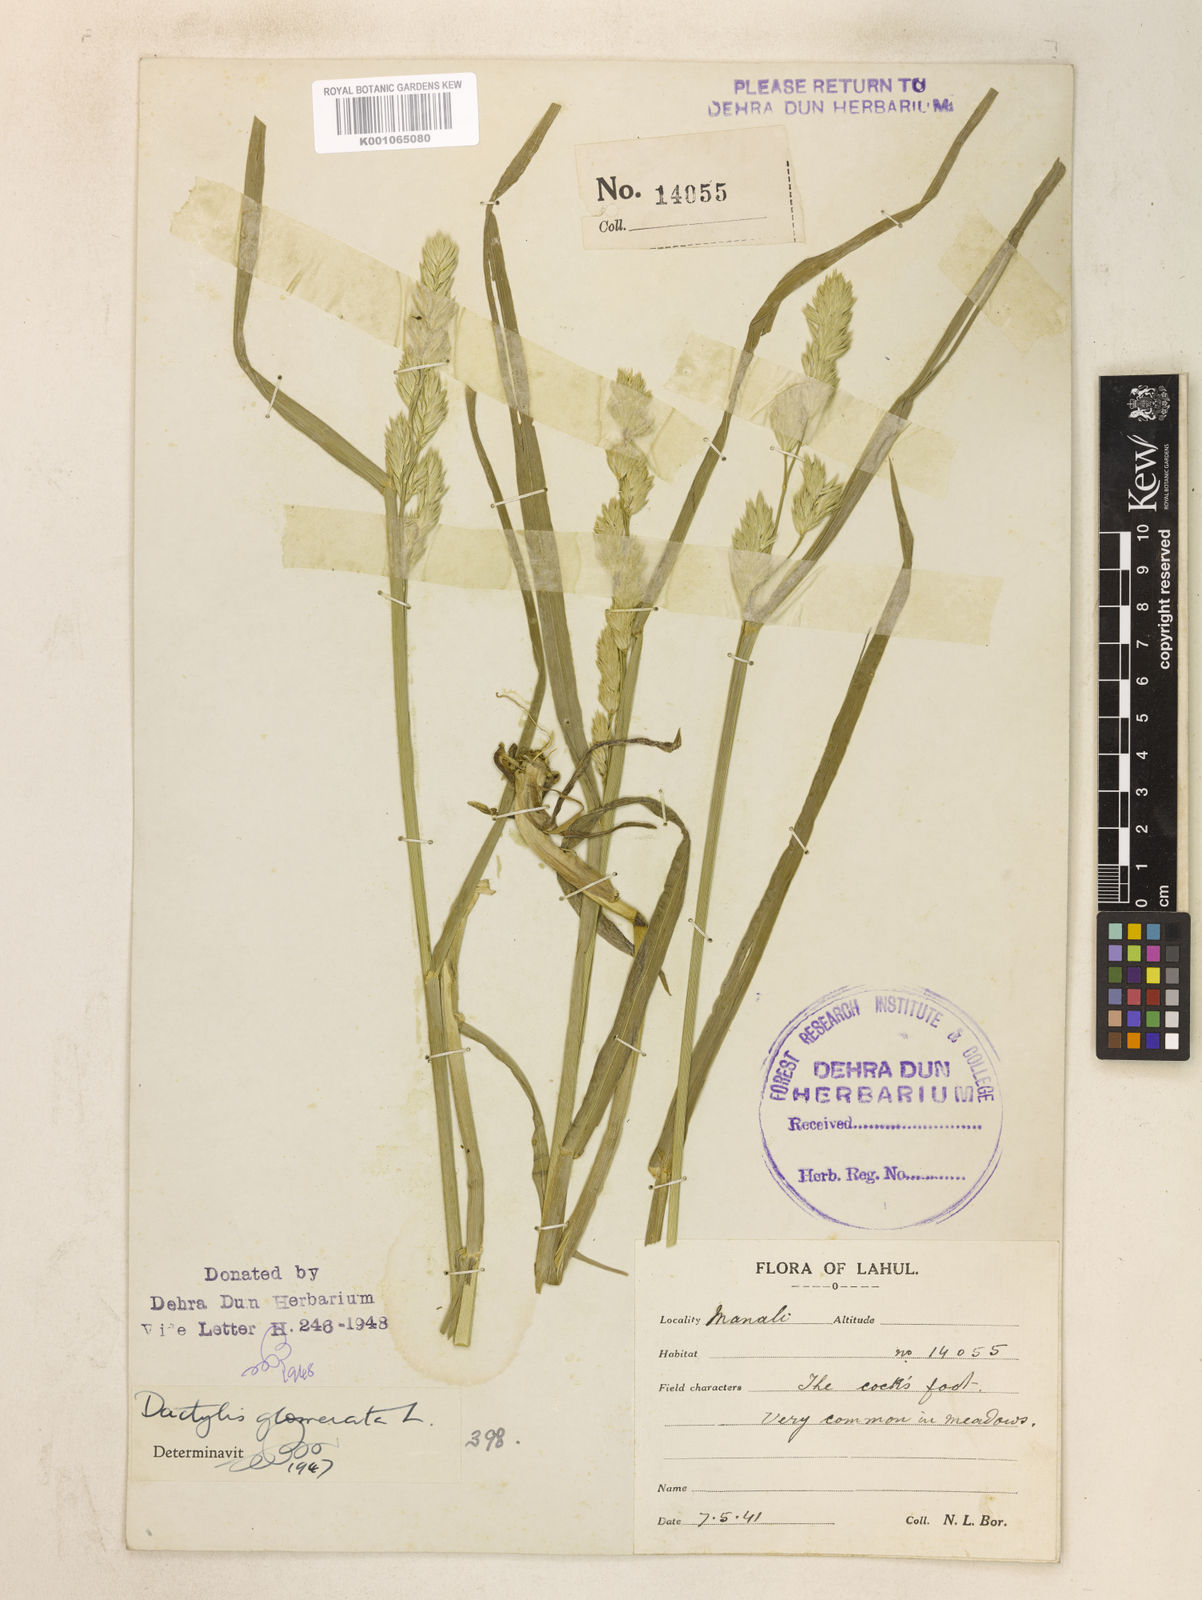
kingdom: Plantae
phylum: Tracheophyta
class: Liliopsida
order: Poales
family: Poaceae
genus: Dactylis
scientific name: Dactylis glomerata
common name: Orchardgrass
